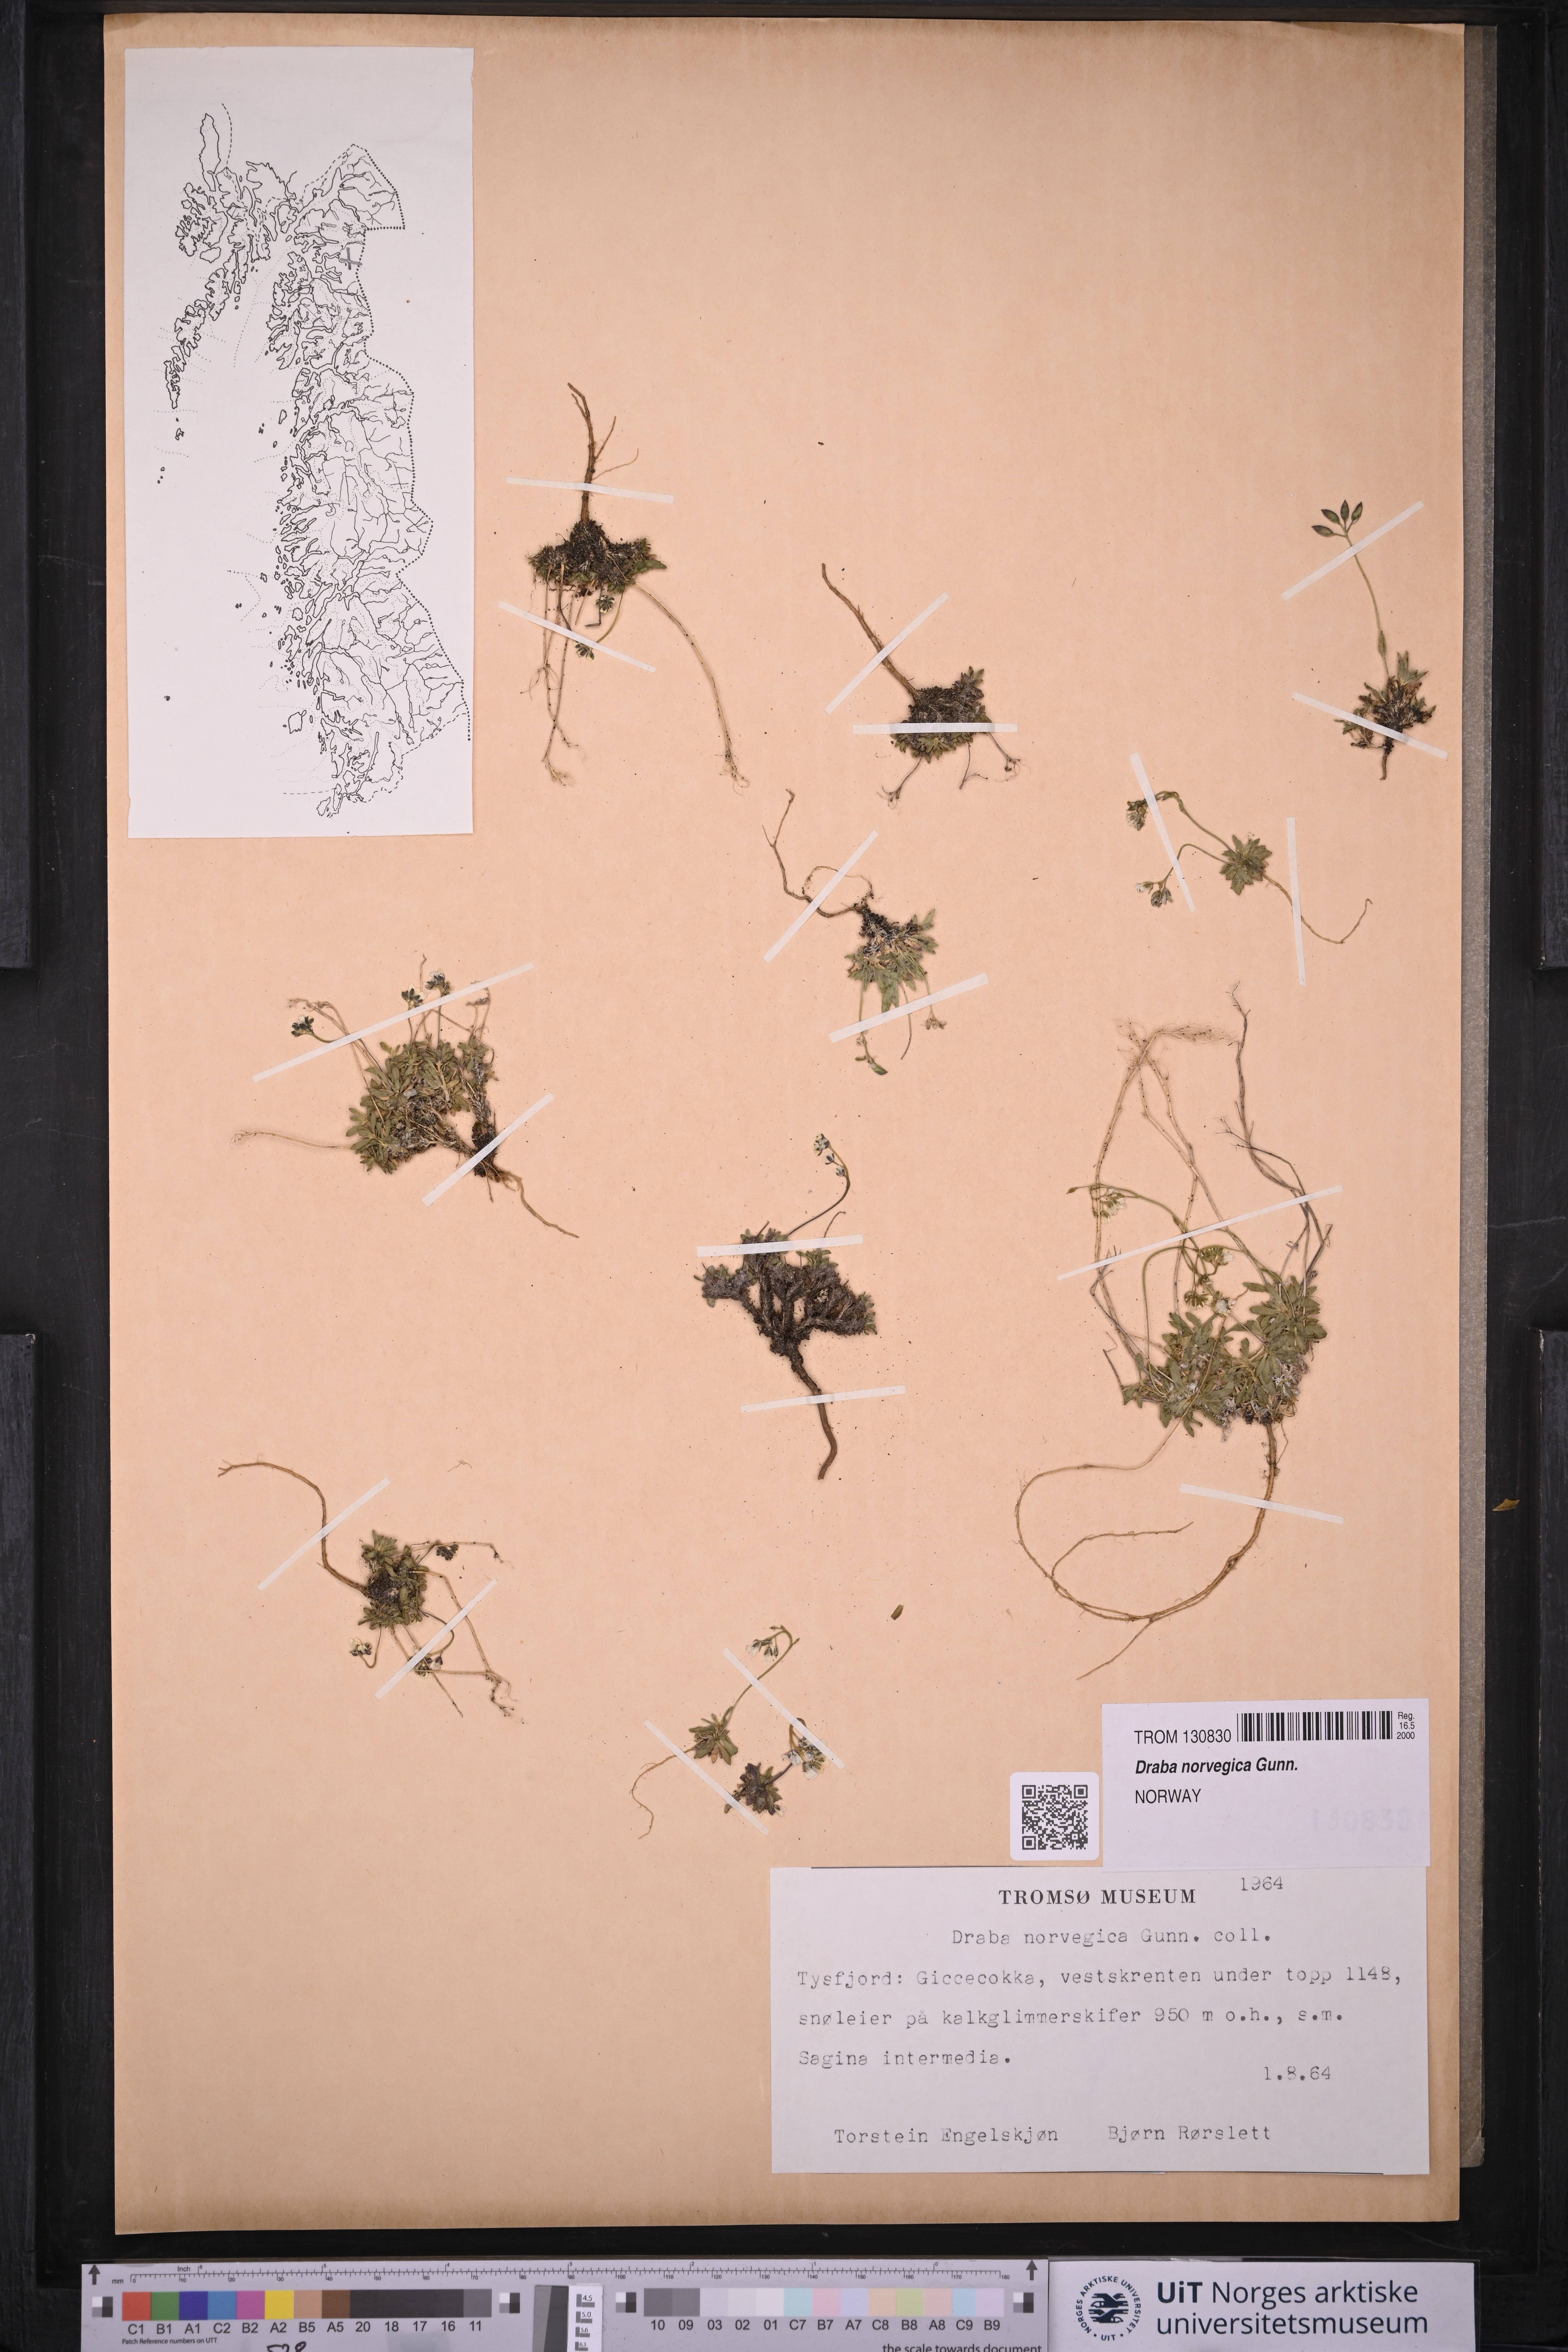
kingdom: Plantae
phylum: Tracheophyta
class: Magnoliopsida
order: Brassicales
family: Brassicaceae
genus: Draba
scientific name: Draba norvegica
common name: Rock whitlowgrass
